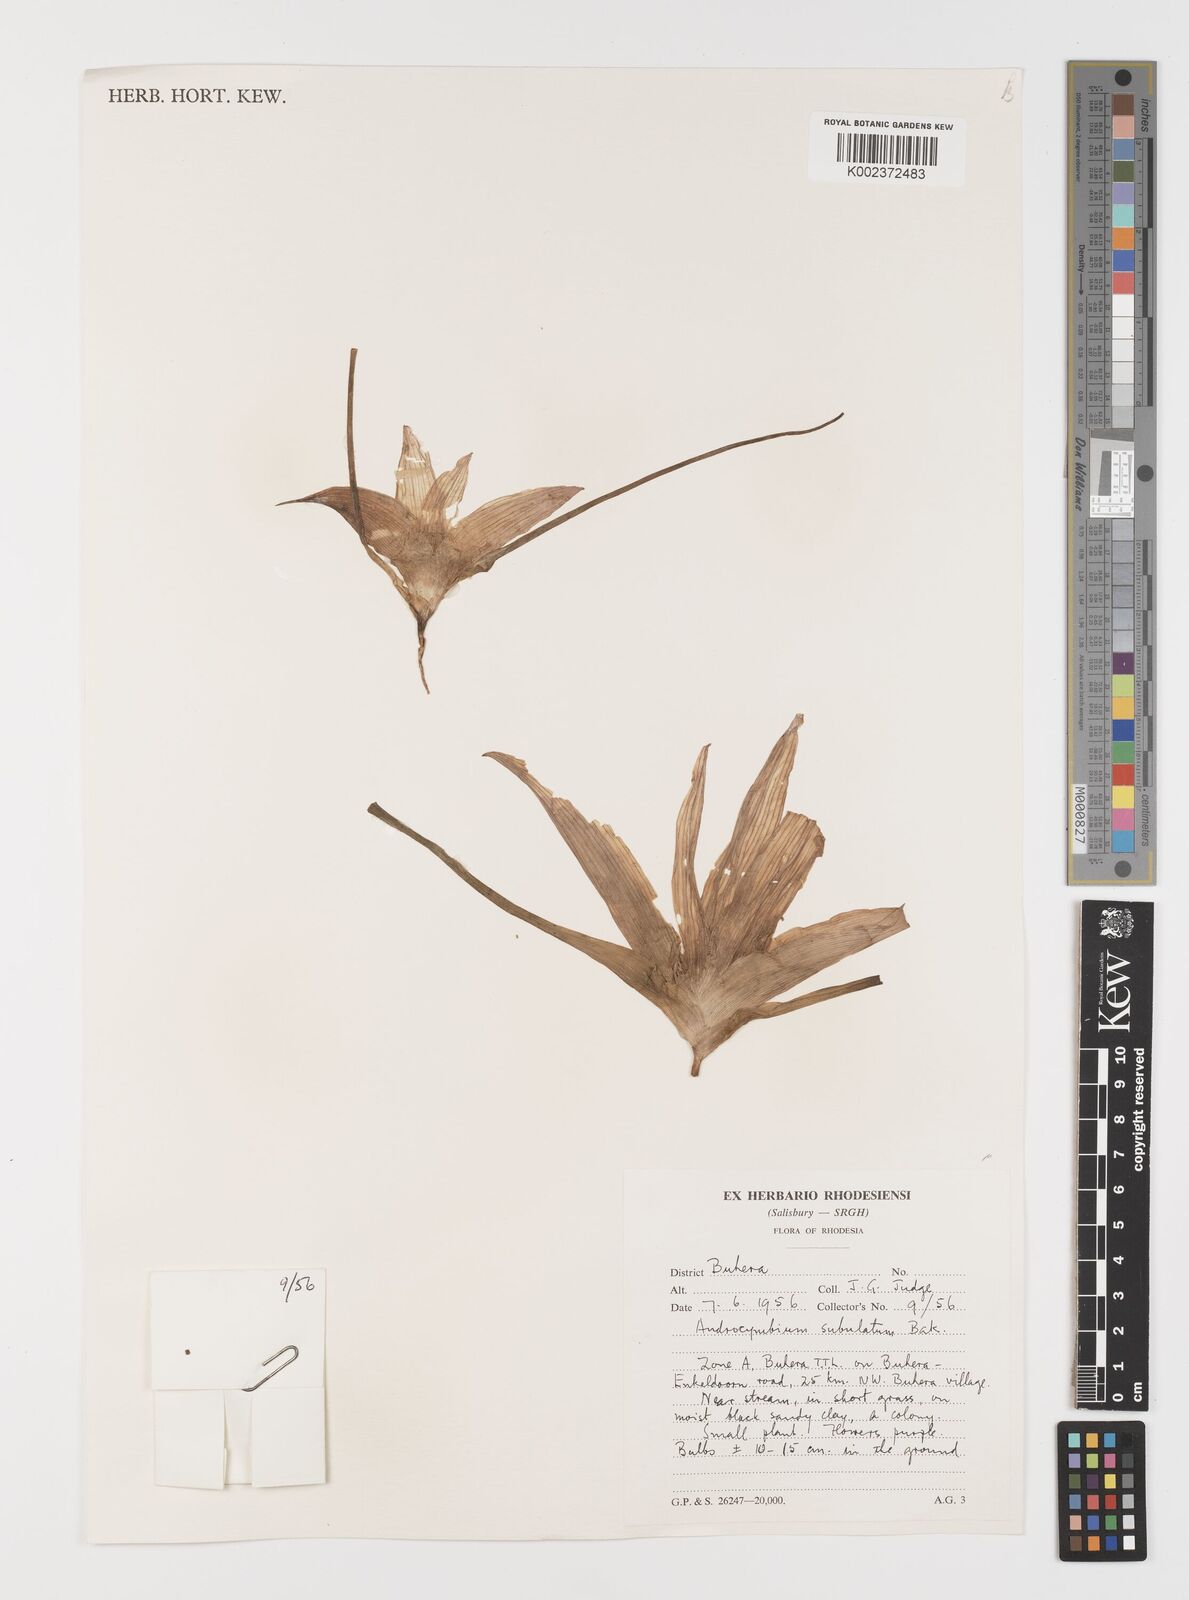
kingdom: Plantae
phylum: Tracheophyta
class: Liliopsida
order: Liliales
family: Colchicaceae
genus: Colchicum
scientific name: Colchicum melanthioides
